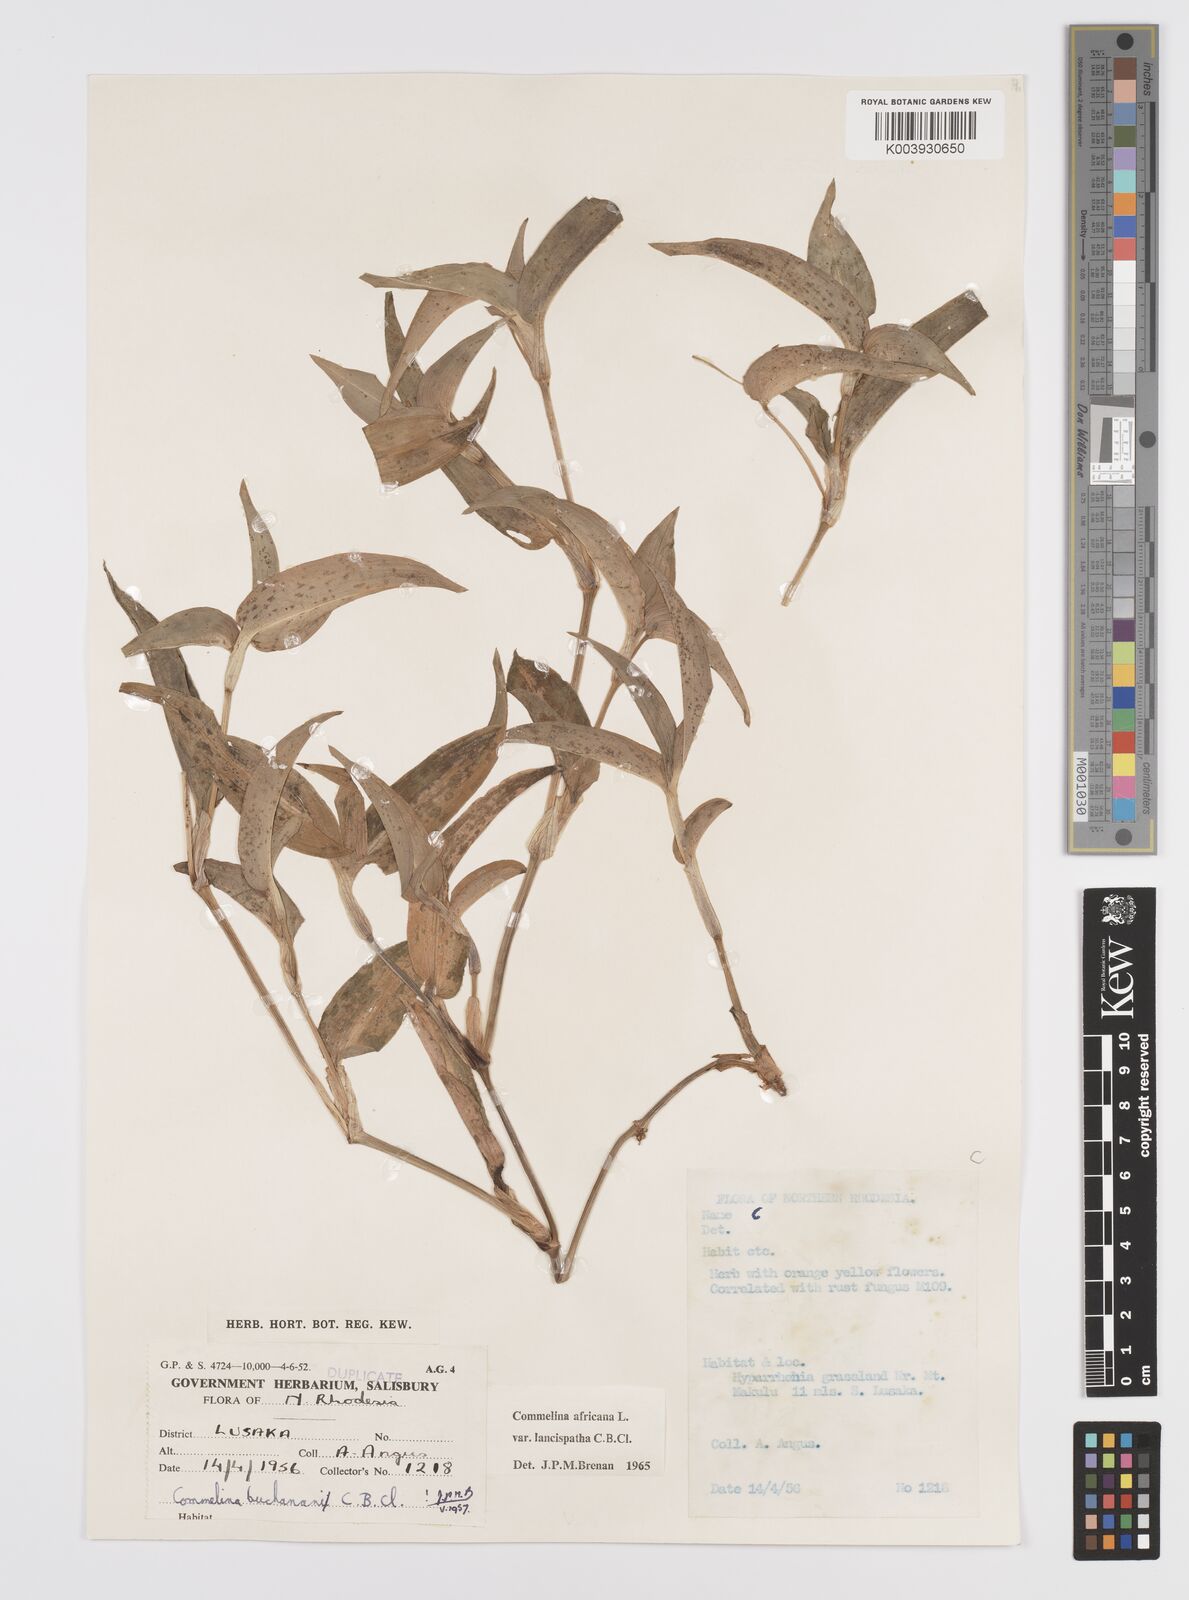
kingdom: Plantae
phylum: Tracheophyta
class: Liliopsida
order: Commelinales
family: Commelinaceae
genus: Commelina
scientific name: Commelina africana
